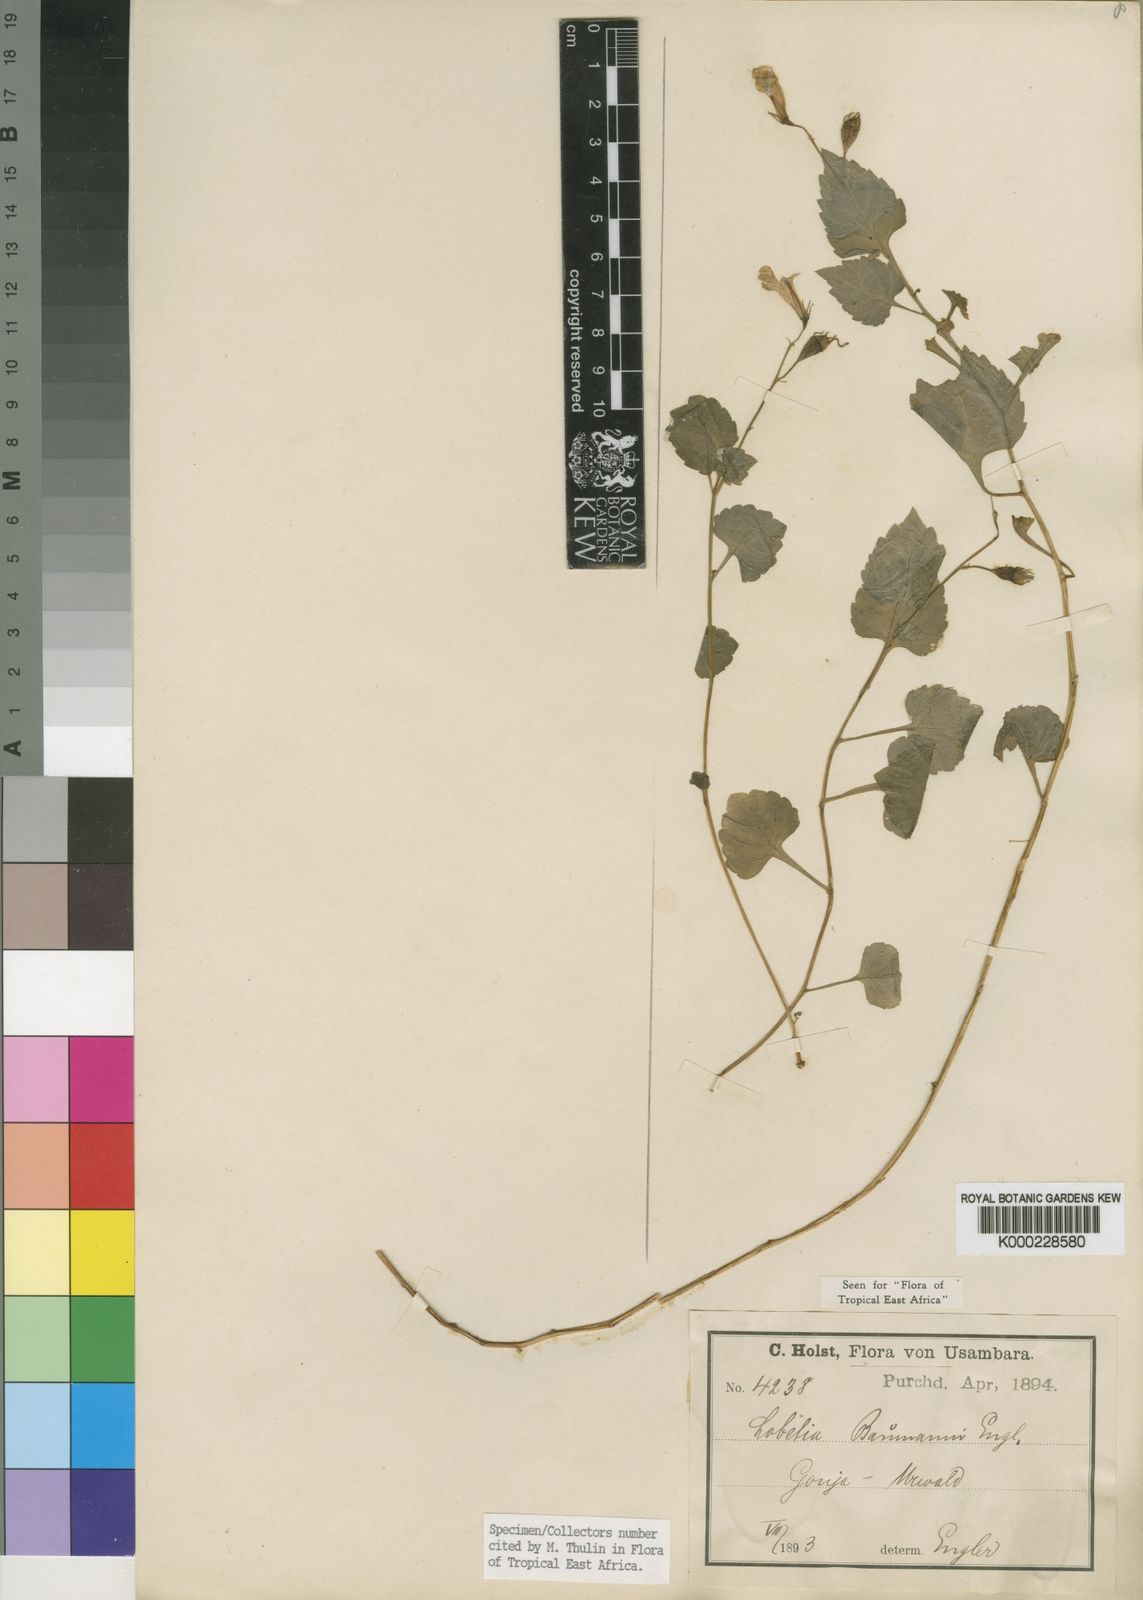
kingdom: Plantae
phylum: Tracheophyta
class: Magnoliopsida
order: Asterales
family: Campanulaceae
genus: Lobelia
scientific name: Lobelia baumannii
